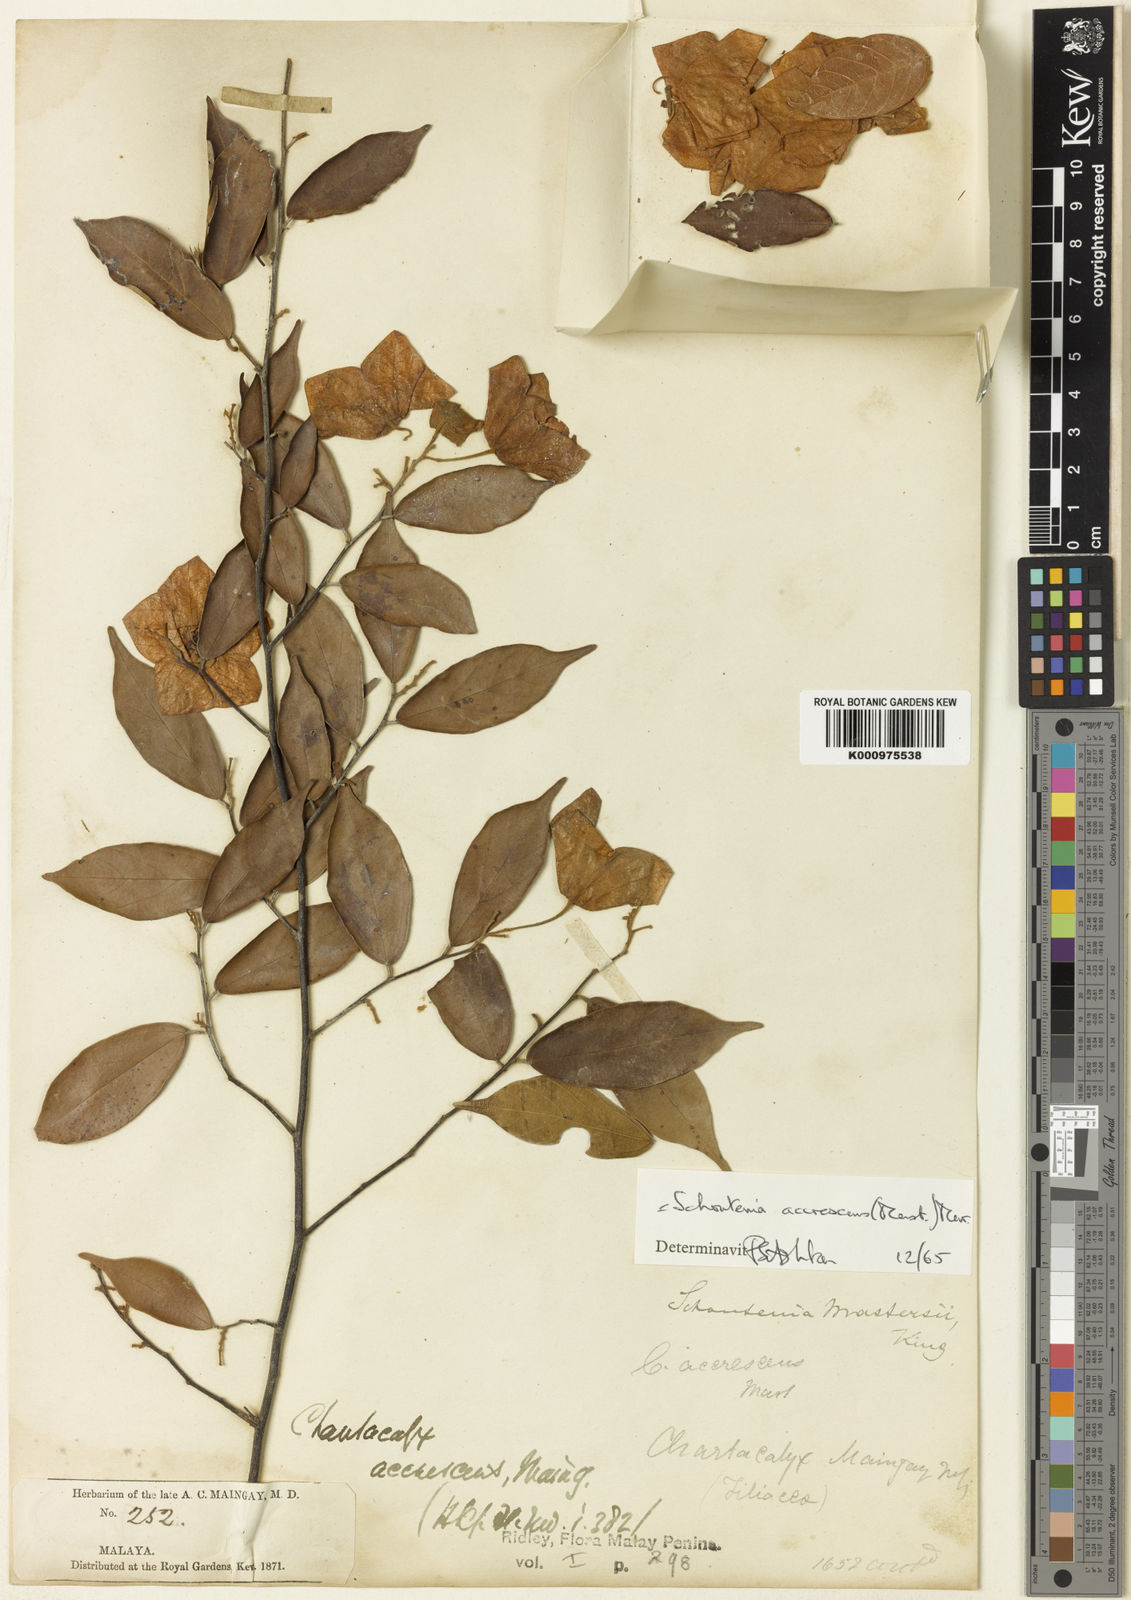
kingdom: Plantae
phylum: Tracheophyta
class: Magnoliopsida
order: Malvales
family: Malvaceae
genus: Schoutenia
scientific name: Schoutenia accrescens
